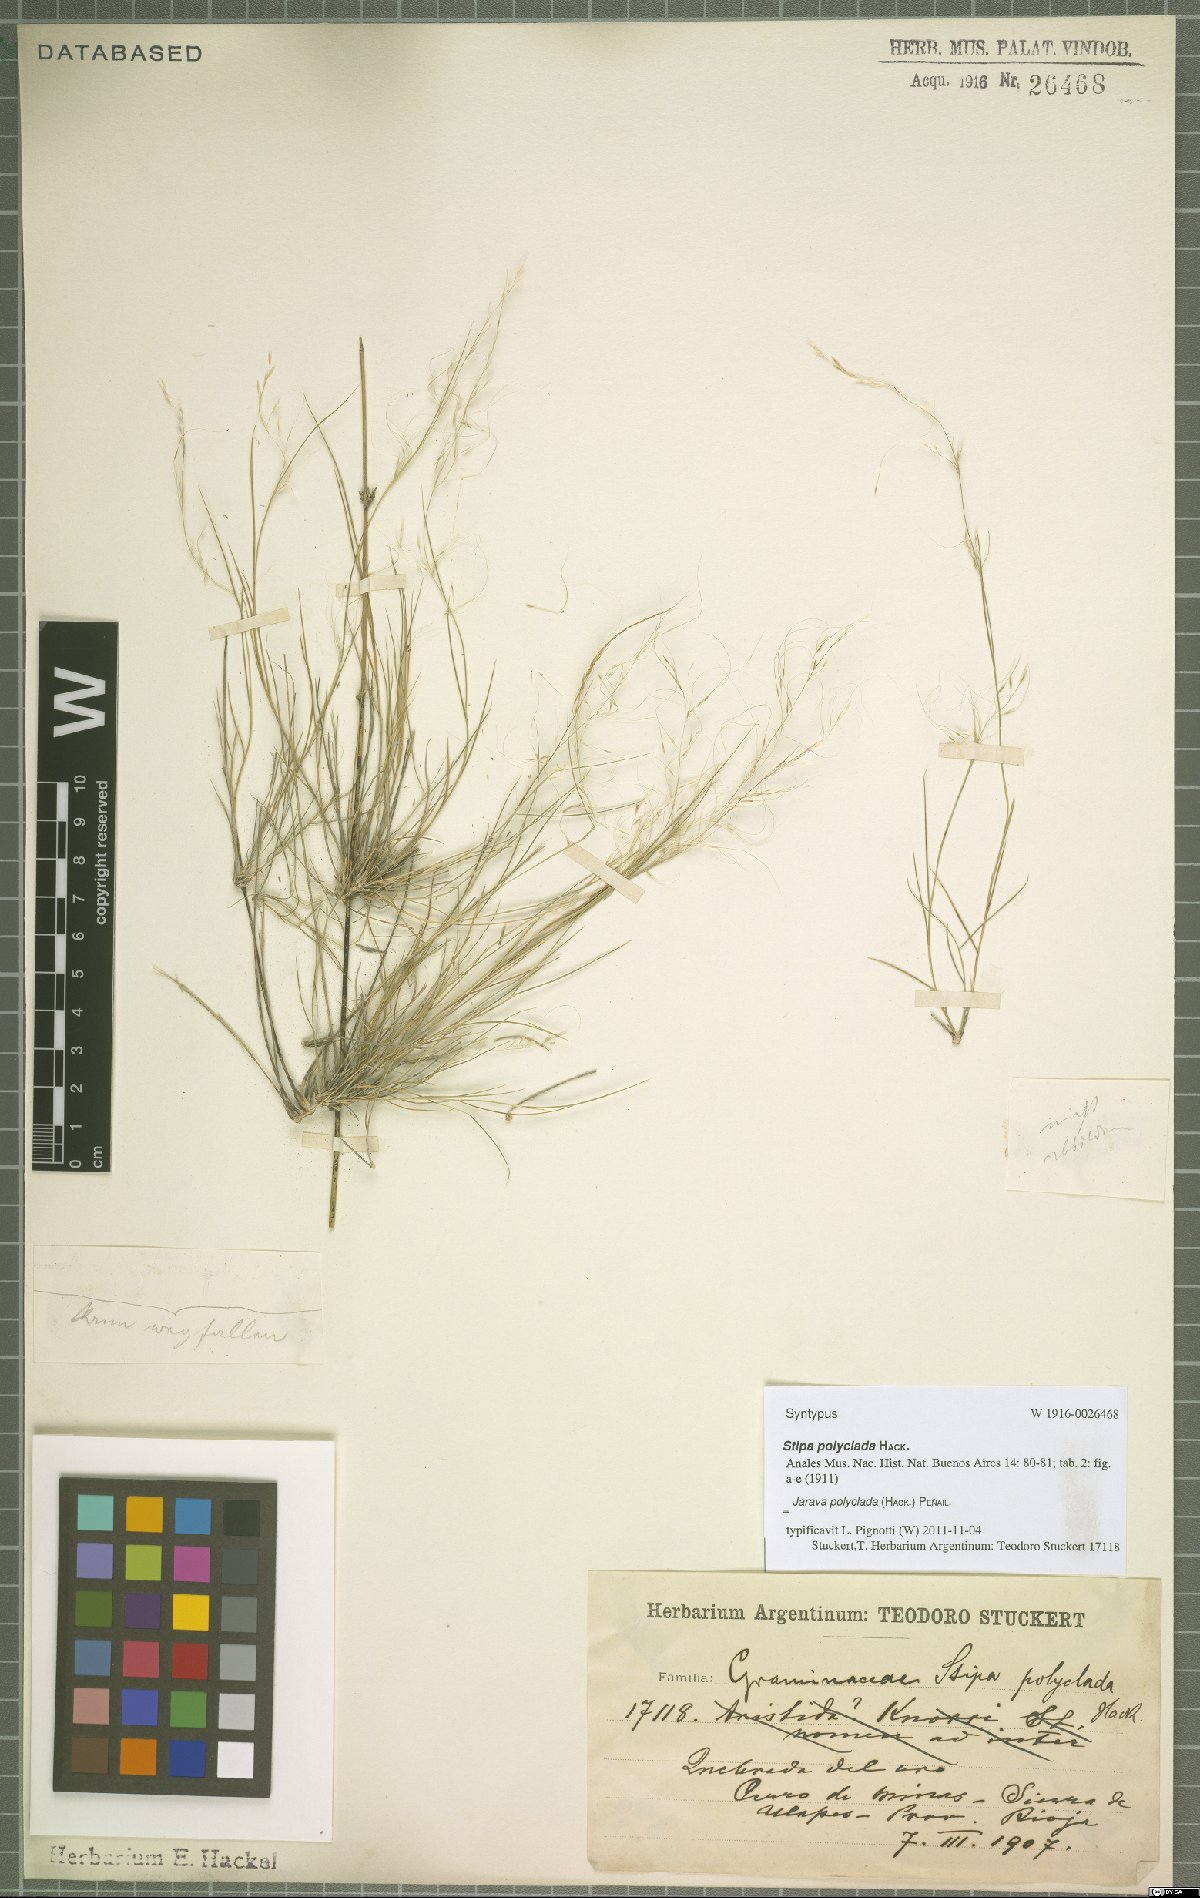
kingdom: Plantae
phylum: Tracheophyta
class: Liliopsida
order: Poales
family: Poaceae
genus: Stipa
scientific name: Stipa polyclada
